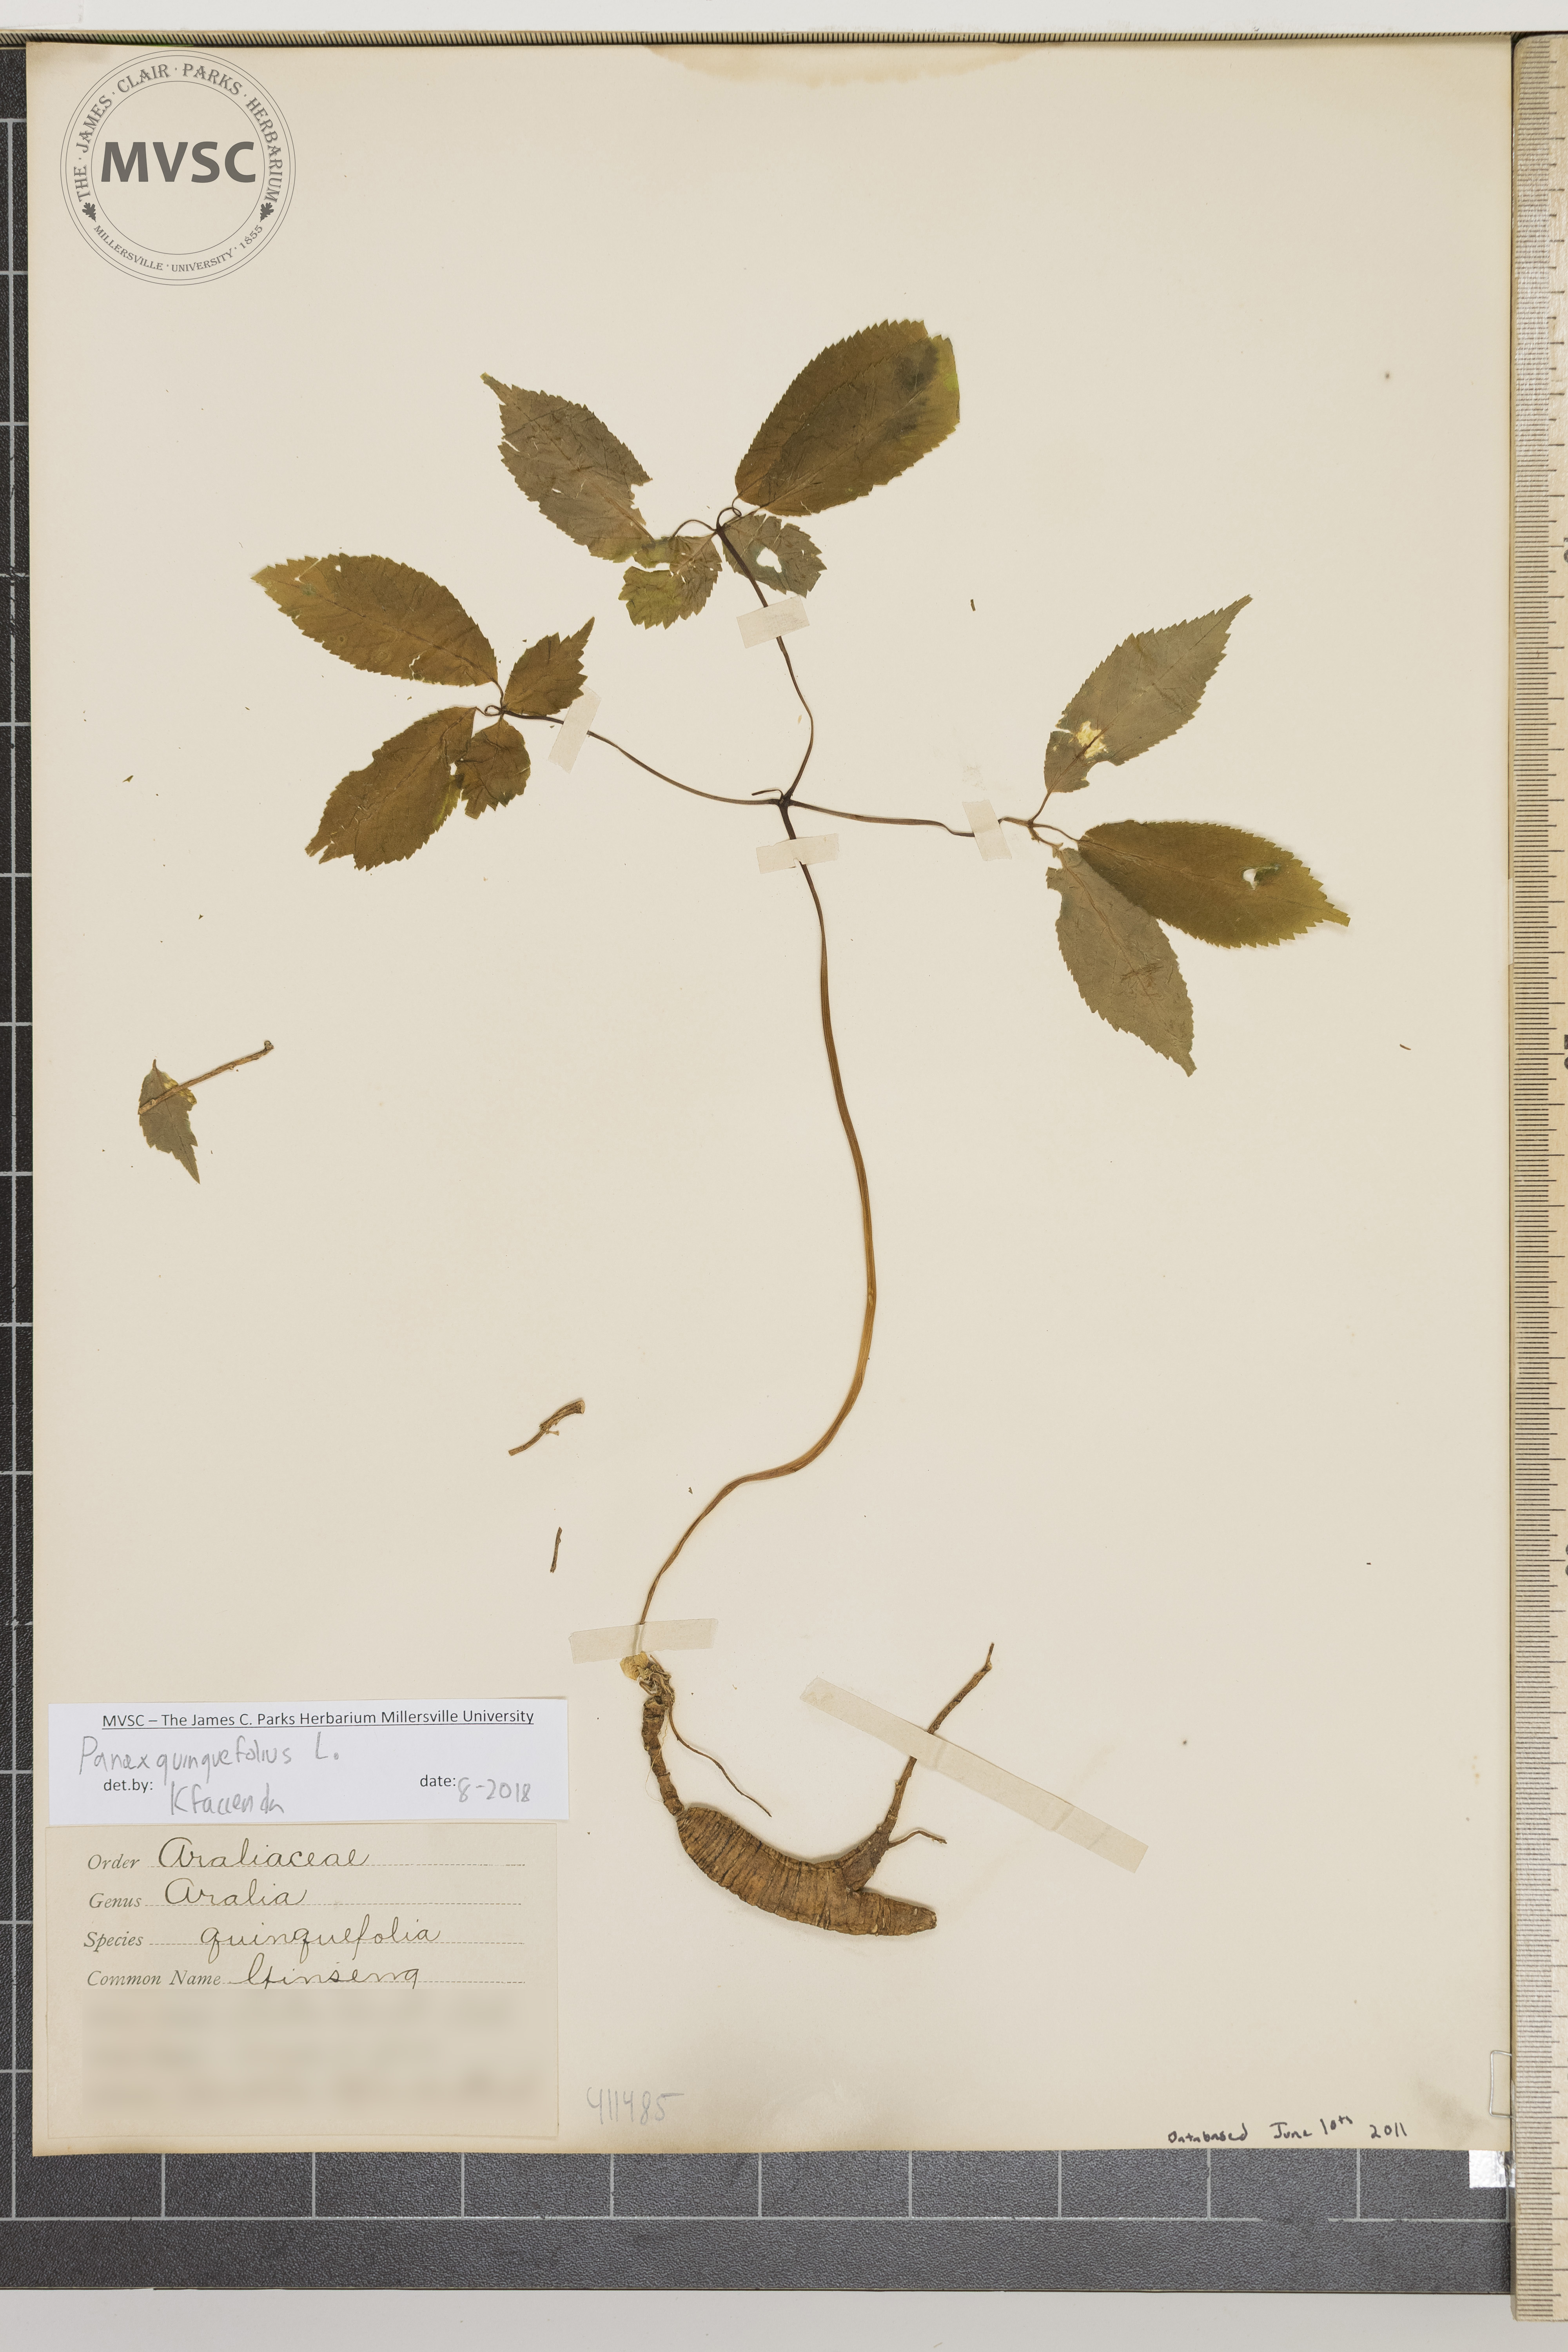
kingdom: Plantae
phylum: Tracheophyta
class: Magnoliopsida
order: Apiales
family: Araliaceae
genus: Panax
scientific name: Panax quinquefolius
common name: Ginseng
